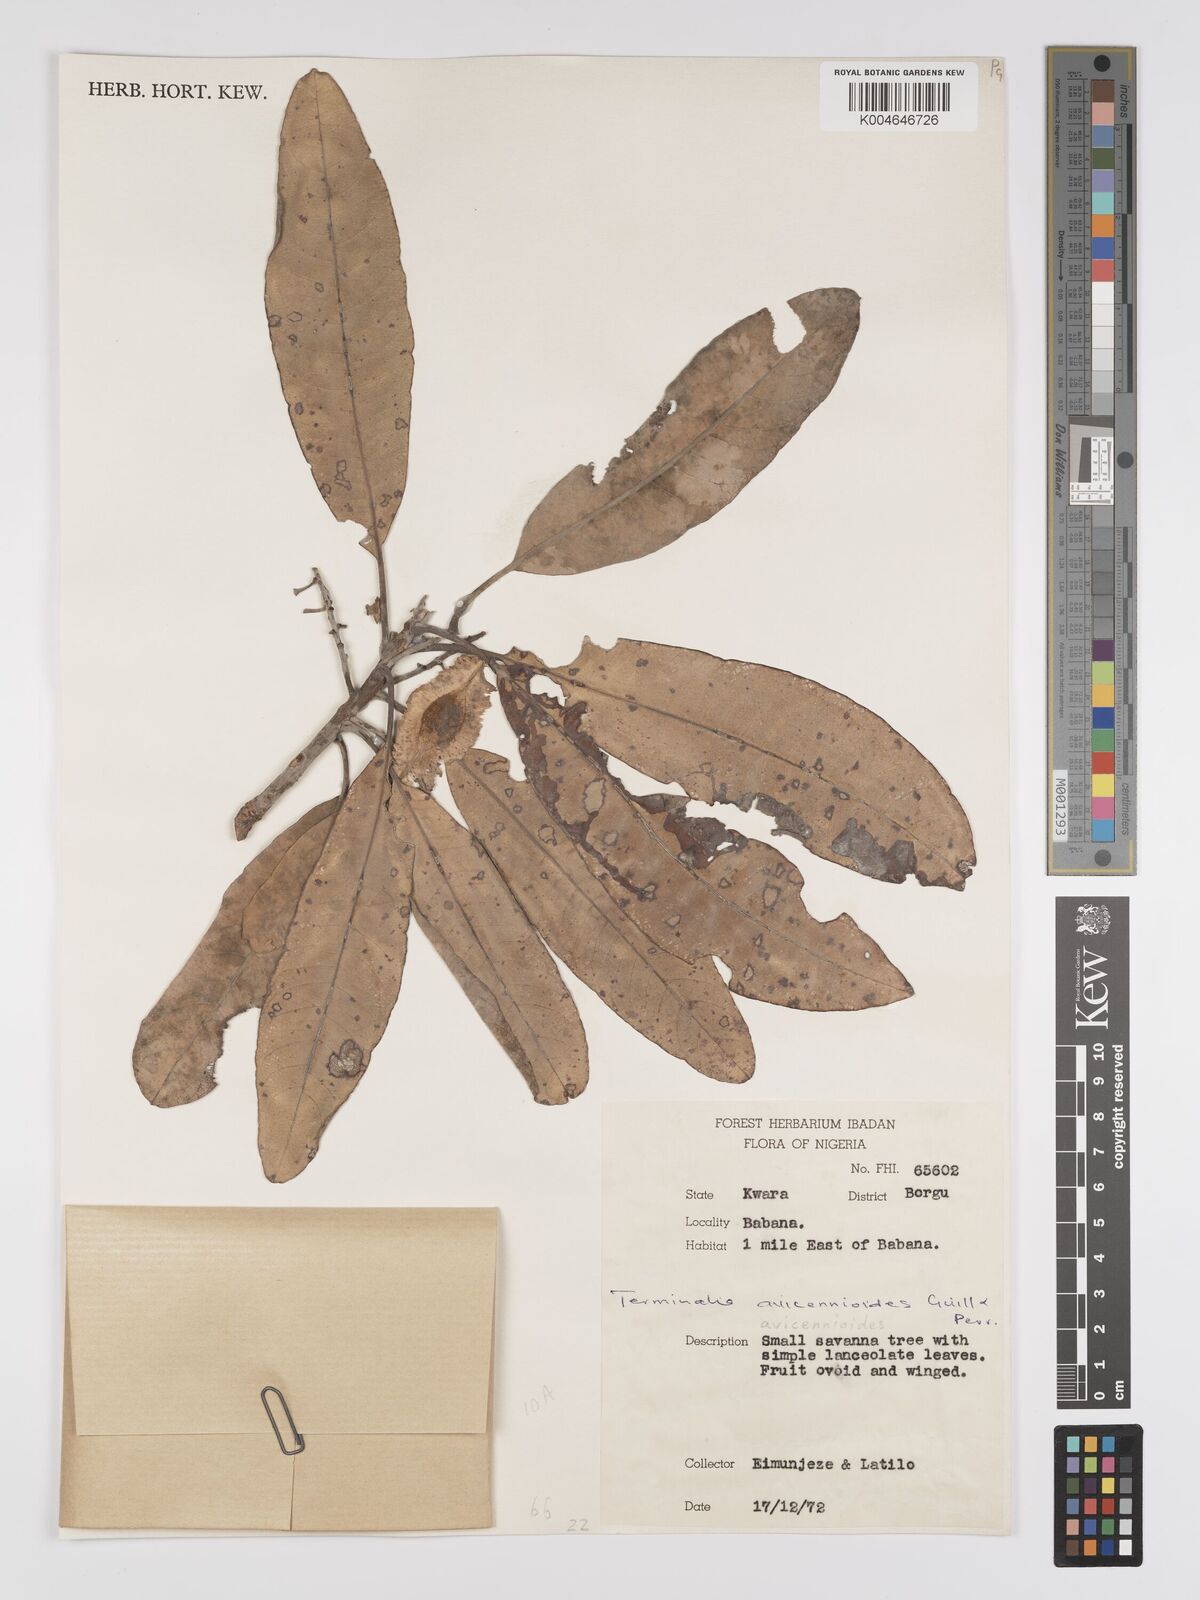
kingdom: Plantae
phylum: Tracheophyta
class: Magnoliopsida
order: Myrtales
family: Combretaceae
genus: Terminalia
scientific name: Terminalia avicennioides
